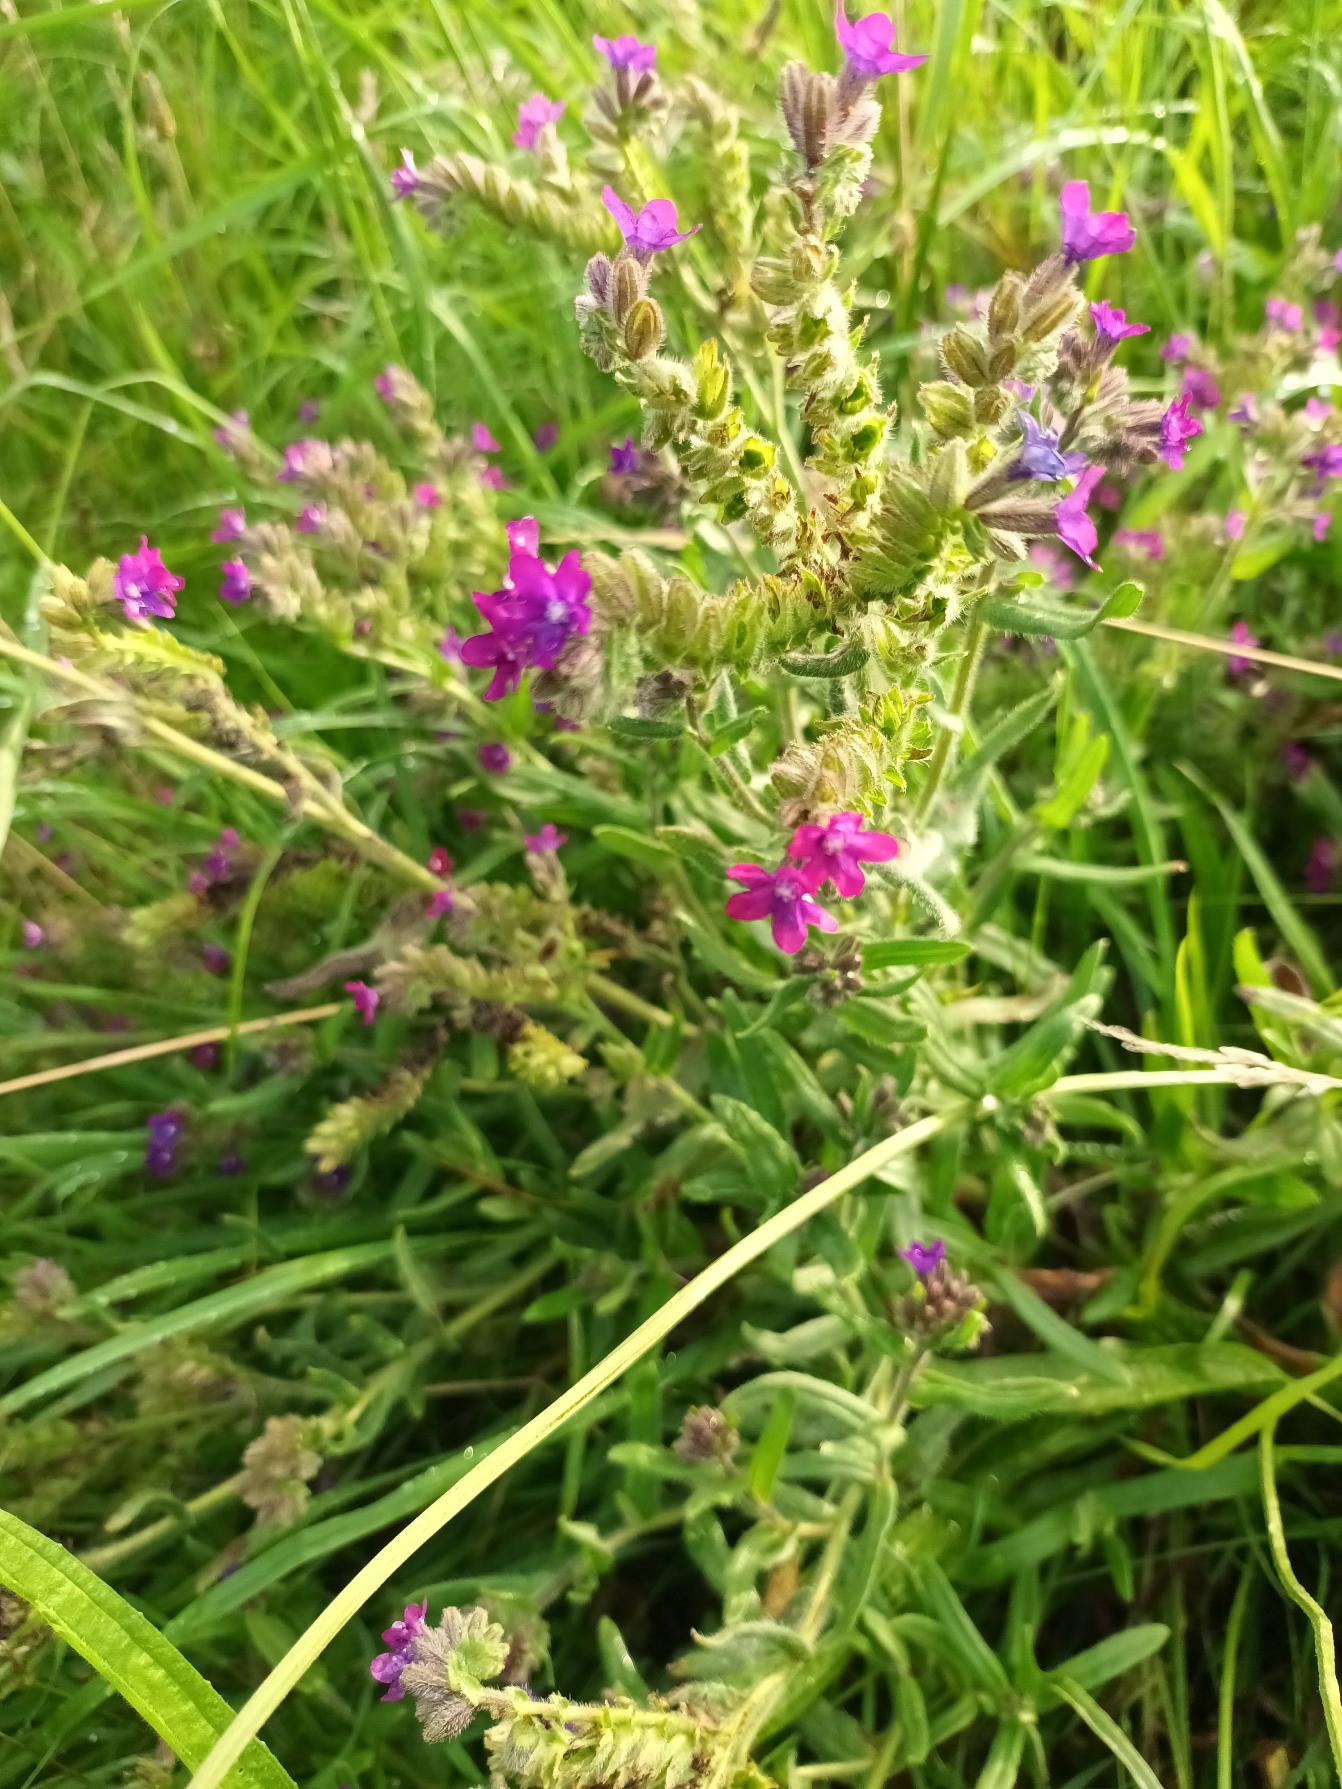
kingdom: Plantae
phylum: Tracheophyta
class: Magnoliopsida
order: Boraginales
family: Boraginaceae
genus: Anchusa
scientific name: Anchusa officinalis
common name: Læge-oksetunge
